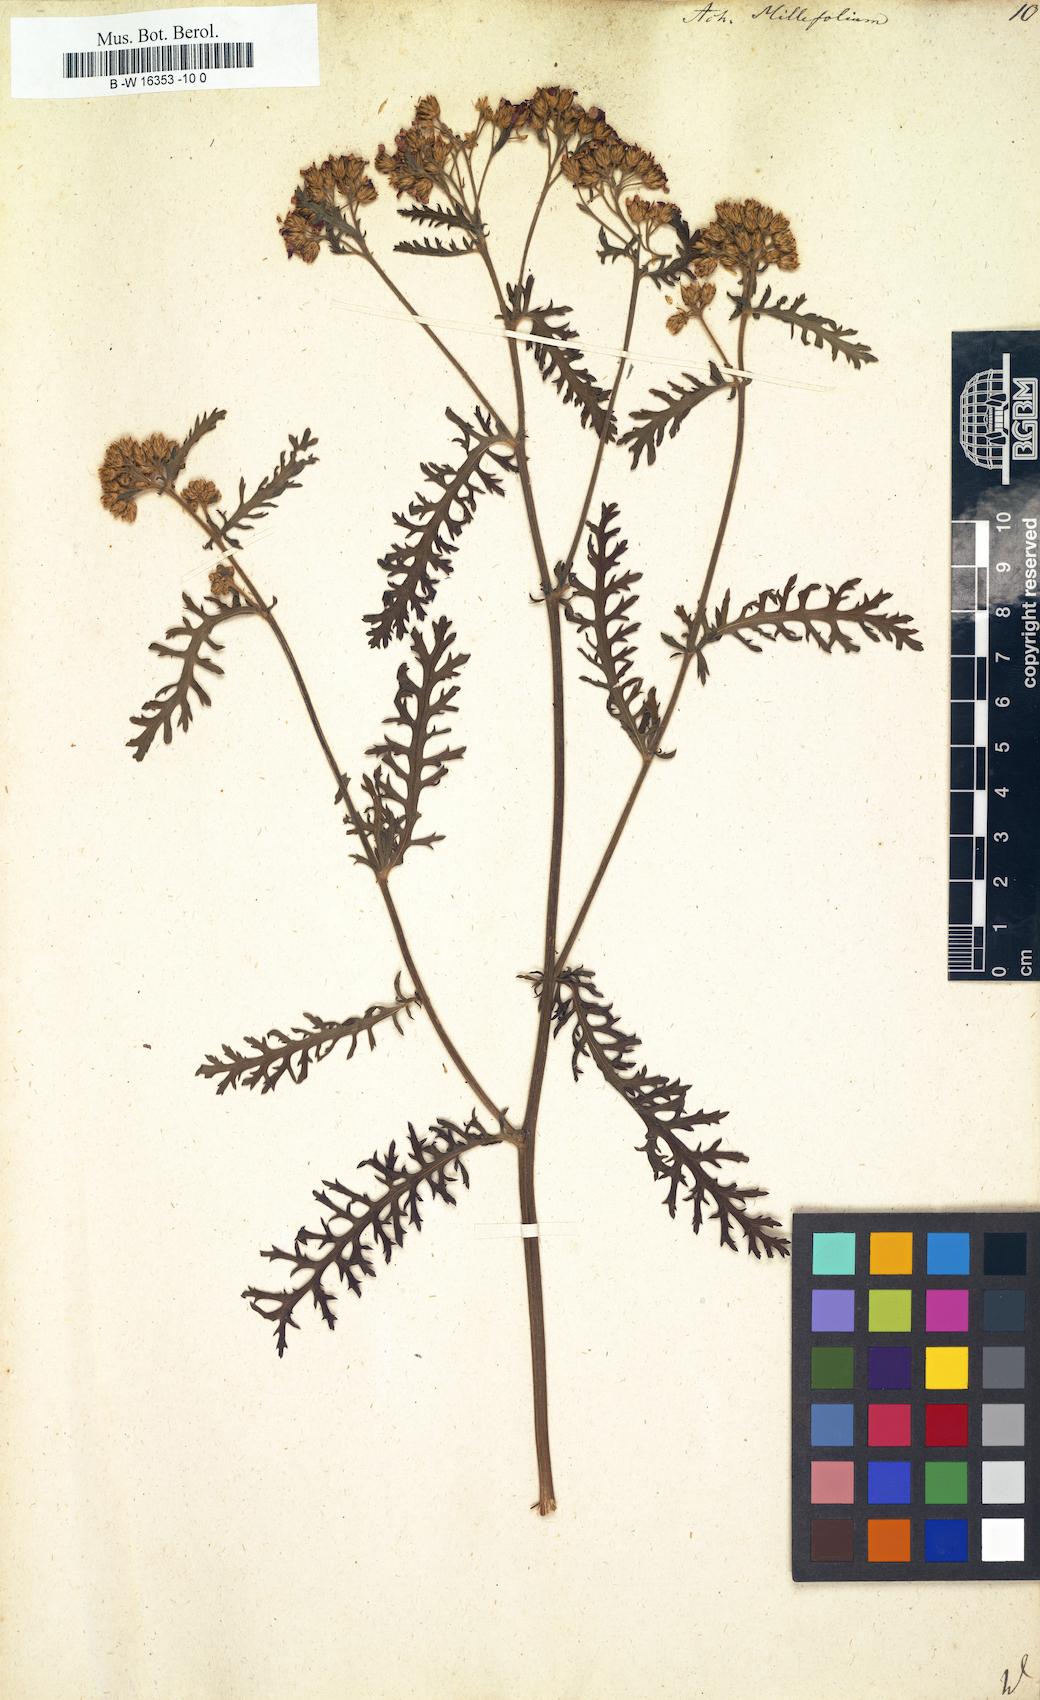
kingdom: Plantae
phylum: Tracheophyta
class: Magnoliopsida
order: Asterales
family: Asteraceae
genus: Achillea
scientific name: Achillea millefolium
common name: Yarrow
